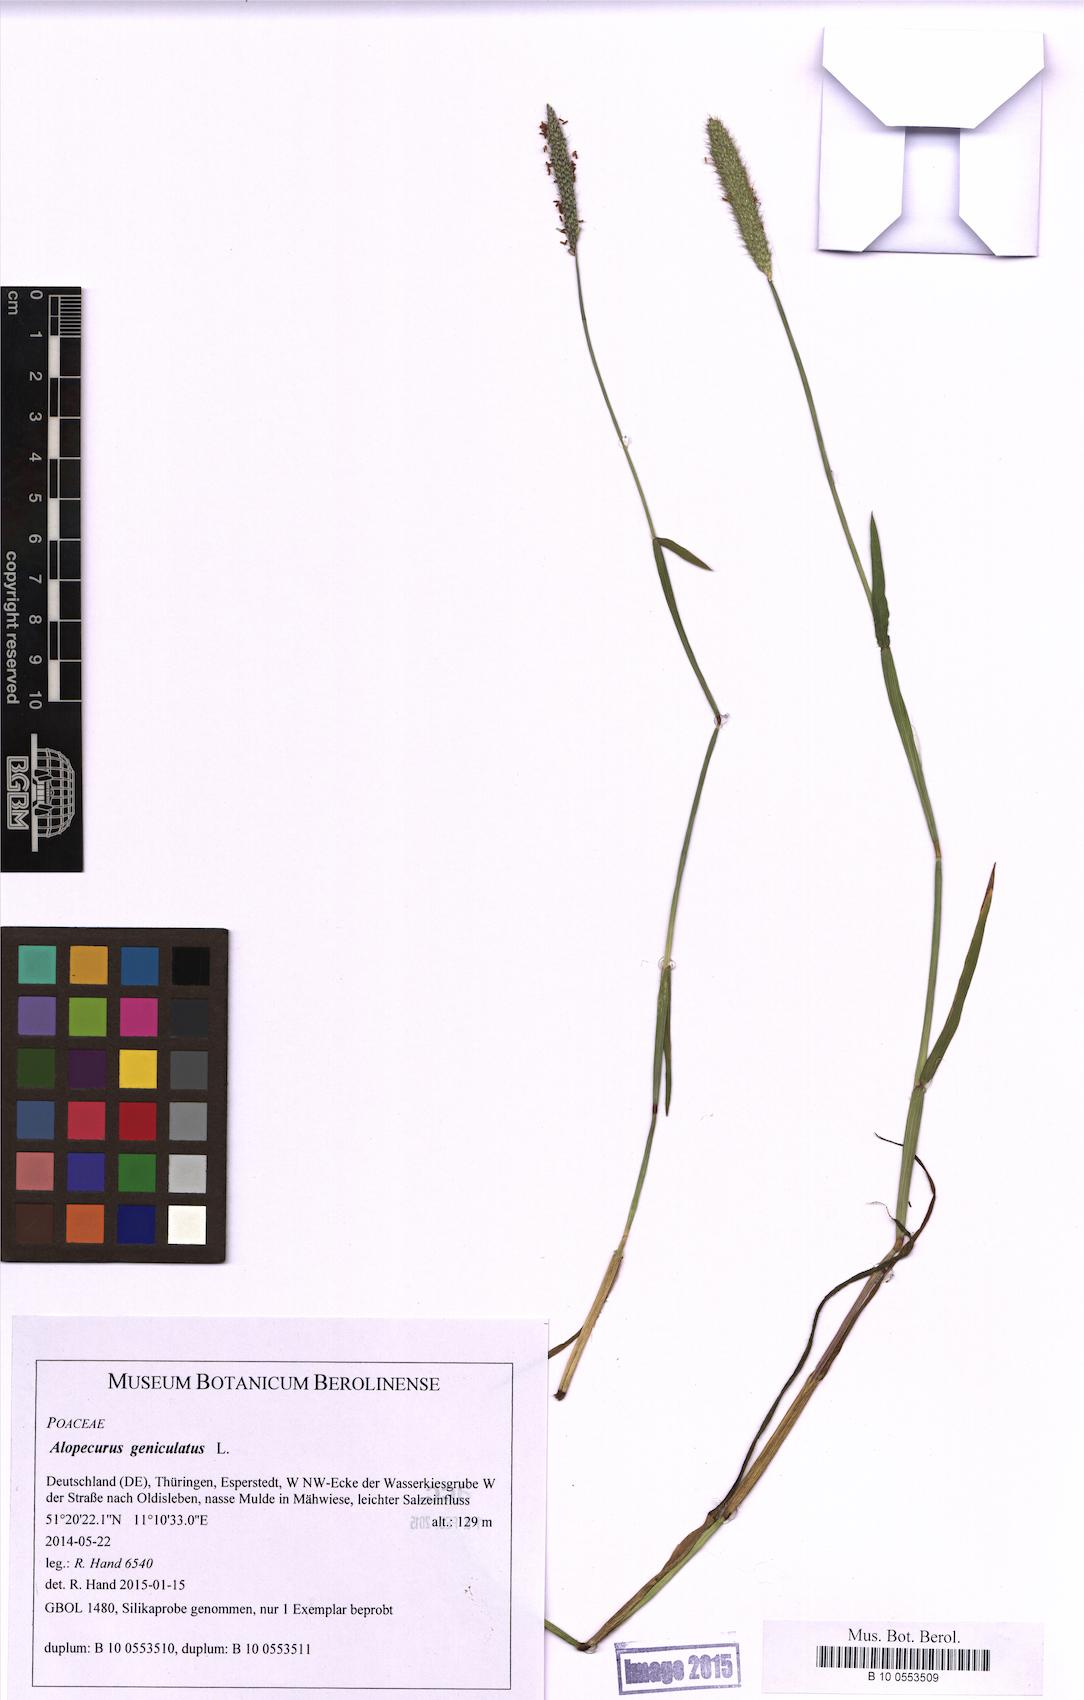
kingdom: Plantae
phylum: Tracheophyta
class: Liliopsida
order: Poales
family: Poaceae
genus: Alopecurus
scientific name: Alopecurus geniculatus
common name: Water foxtail
